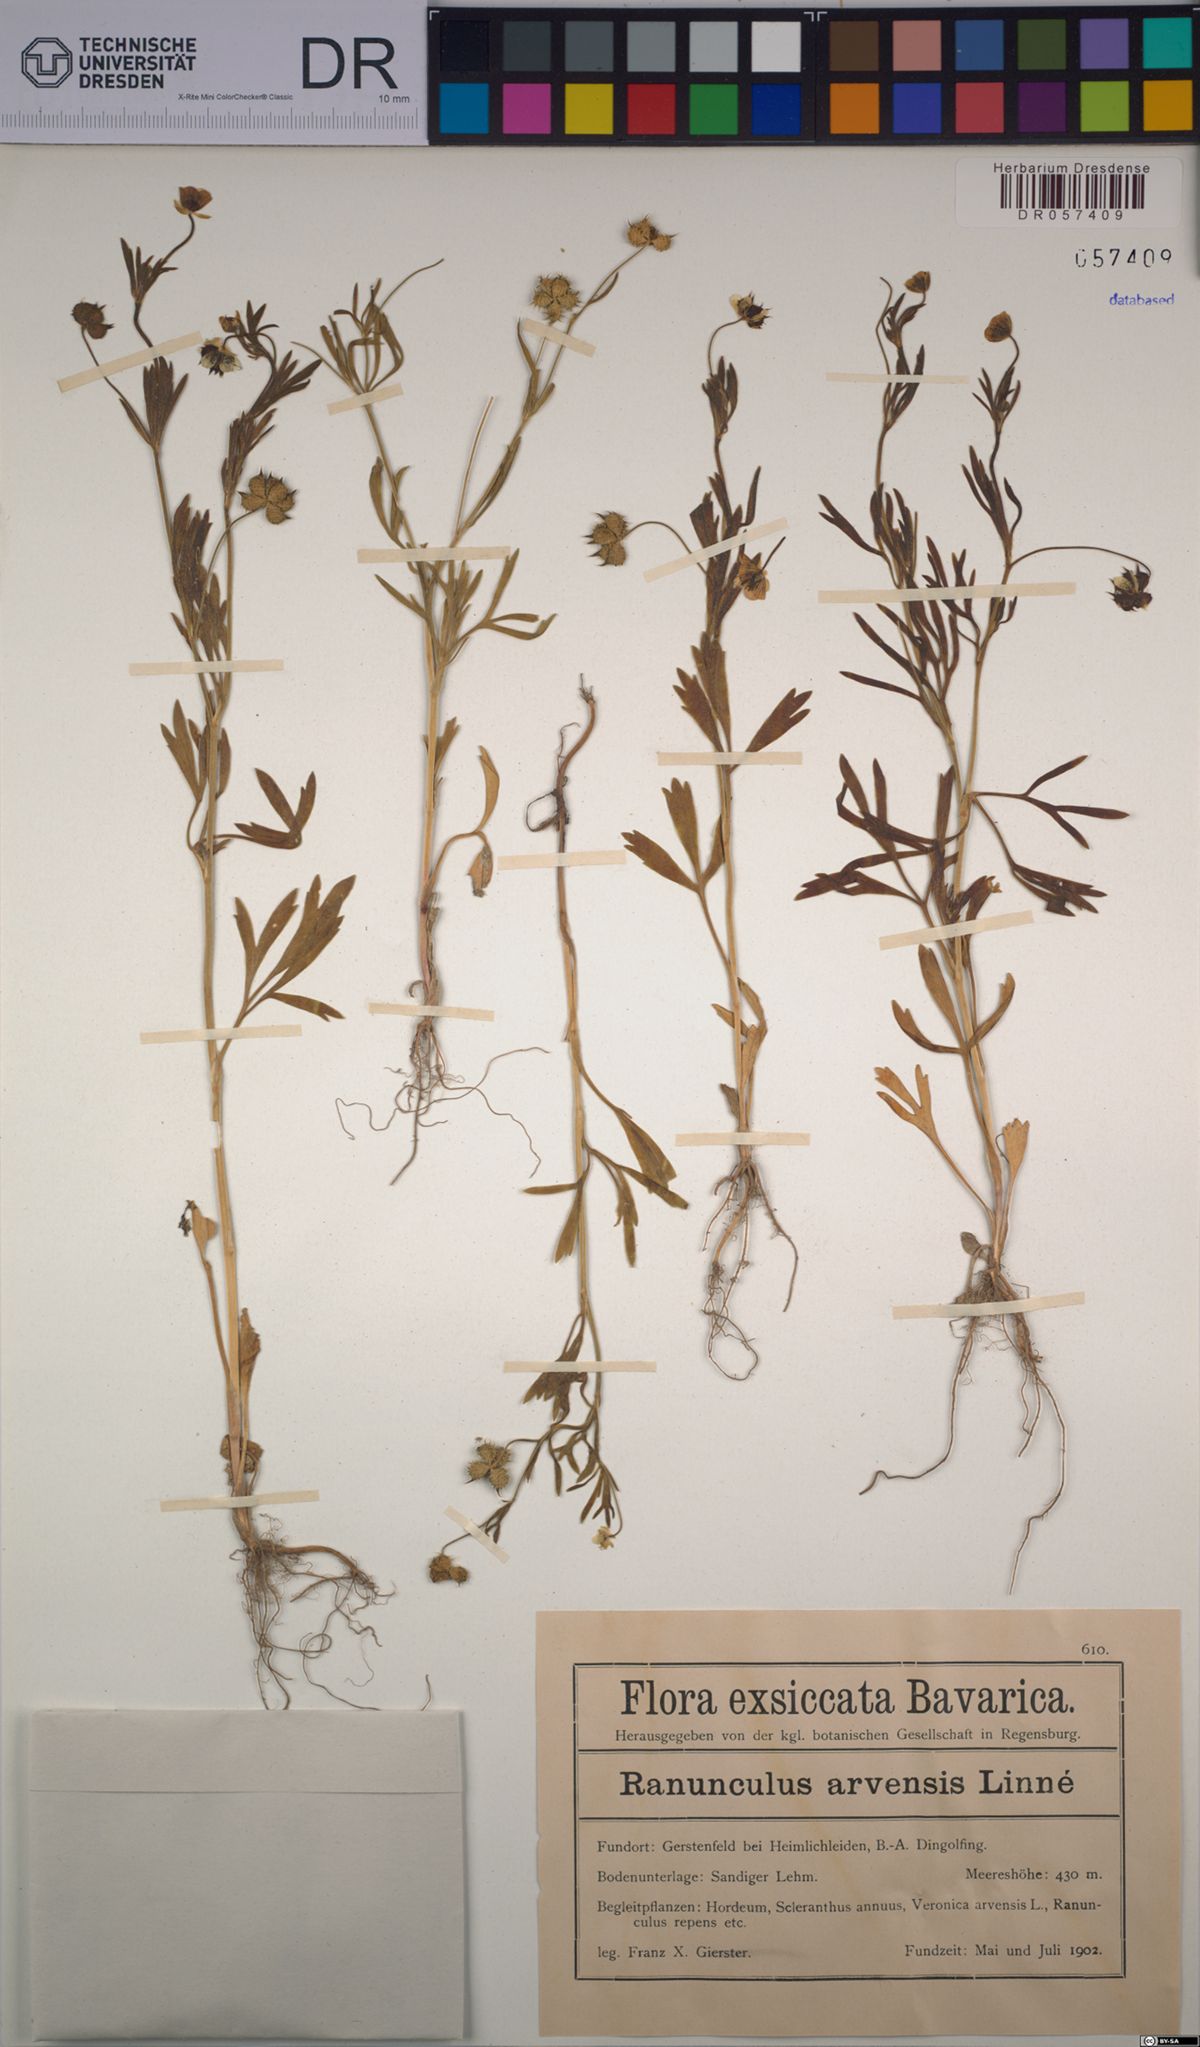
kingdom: Plantae
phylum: Tracheophyta
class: Magnoliopsida
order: Ranunculales
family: Ranunculaceae
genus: Ranunculus
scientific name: Ranunculus arvensis
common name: Corn buttercup
